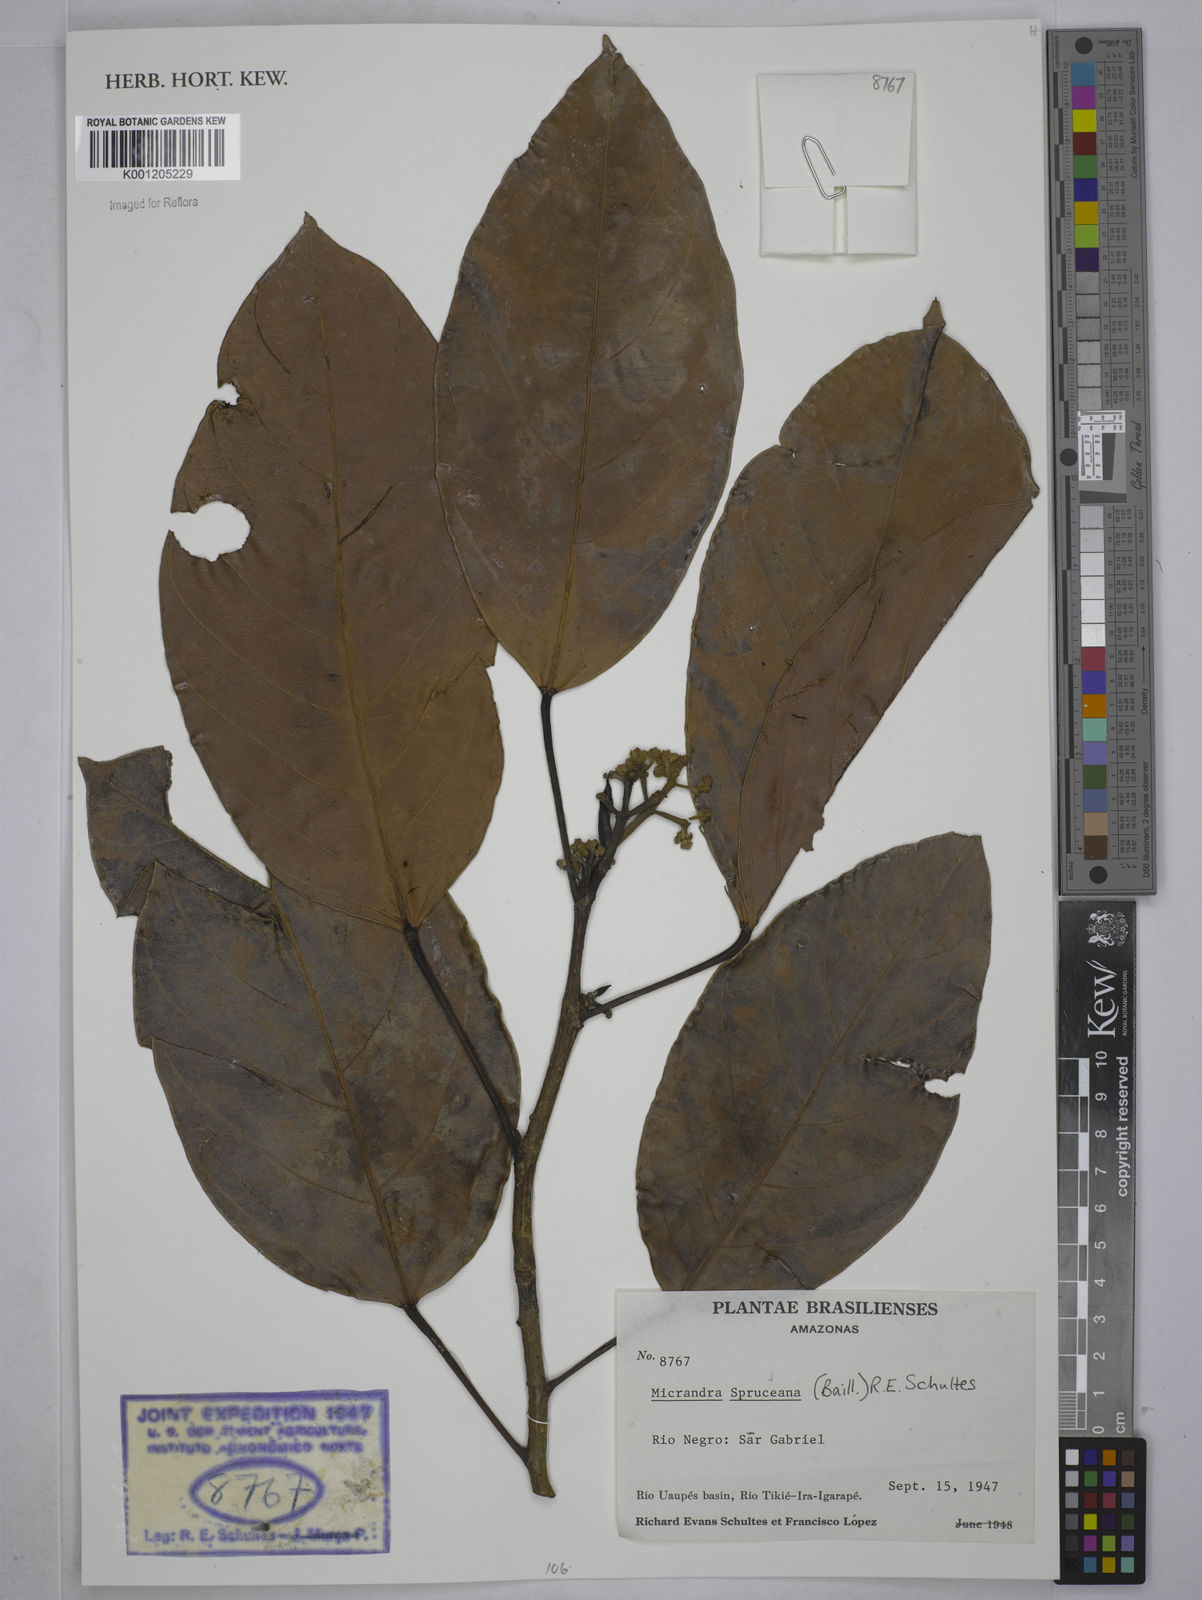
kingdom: Plantae
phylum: Tracheophyta
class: Magnoliopsida
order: Malpighiales
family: Euphorbiaceae
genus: Micrandra
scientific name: Micrandra spruceana
